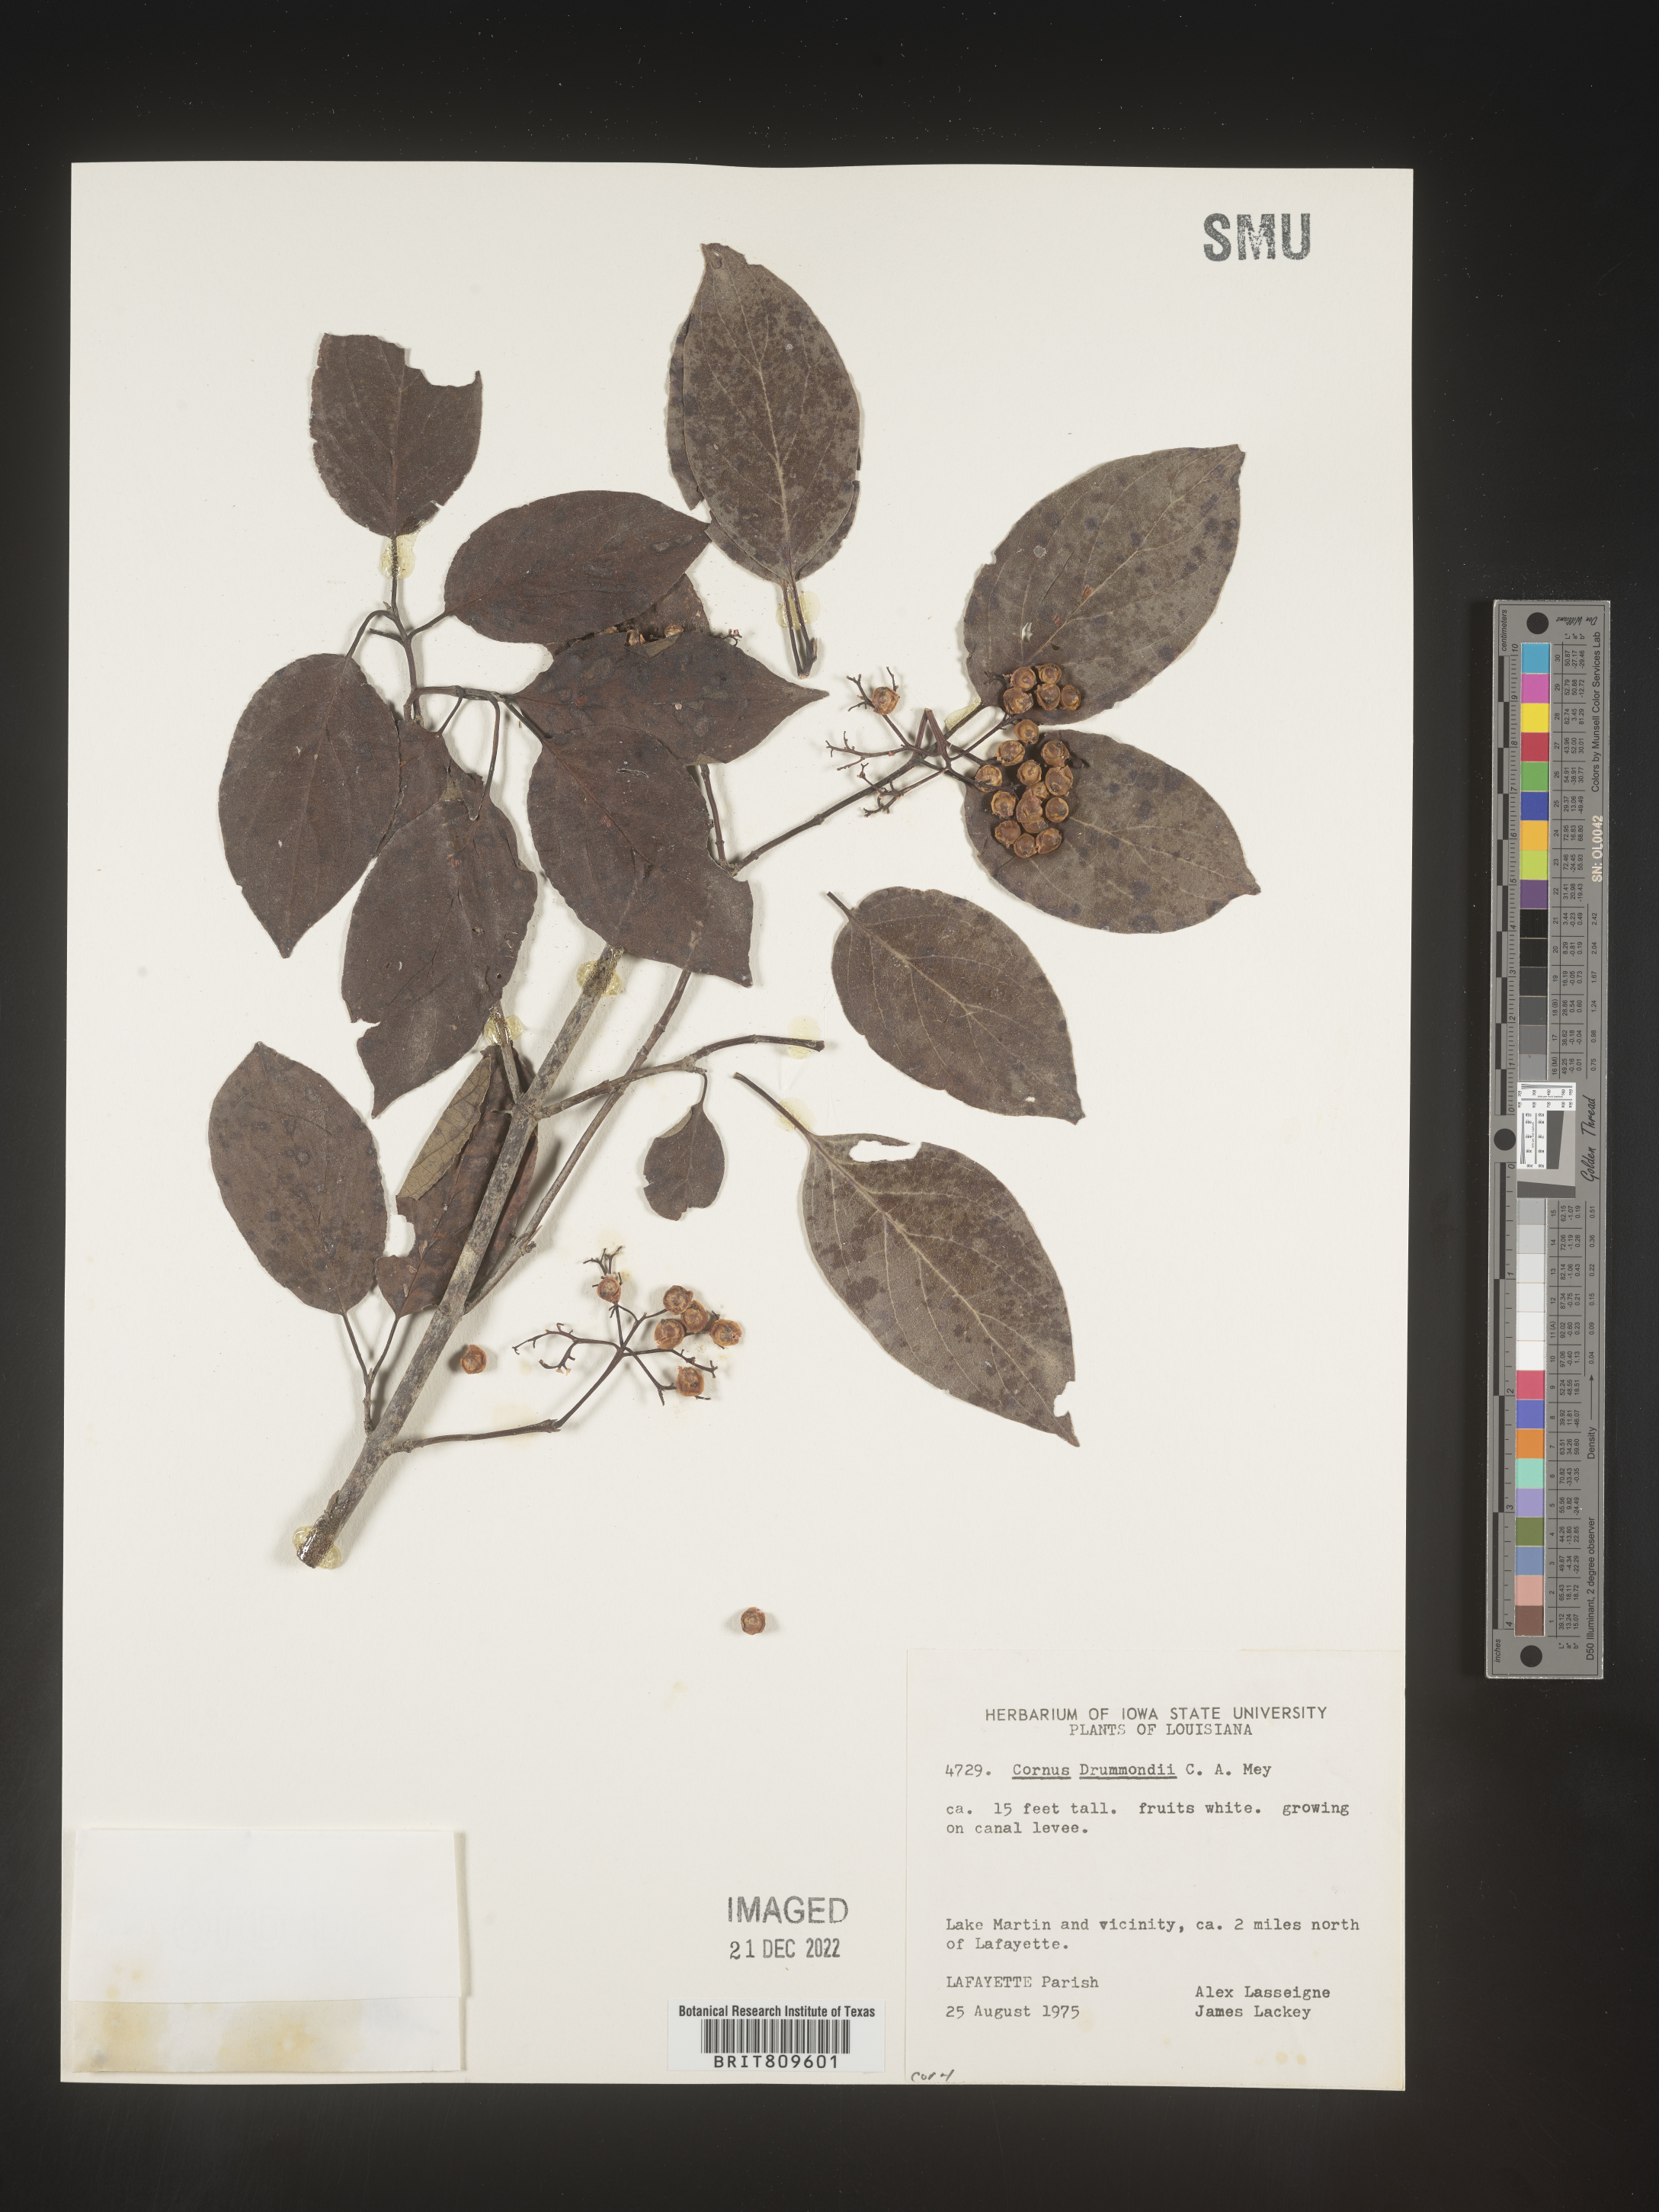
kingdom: Plantae
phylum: Tracheophyta
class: Magnoliopsida
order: Cornales
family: Cornaceae
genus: Cornus
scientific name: Cornus drummondii
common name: Rough-leaf dogwood
